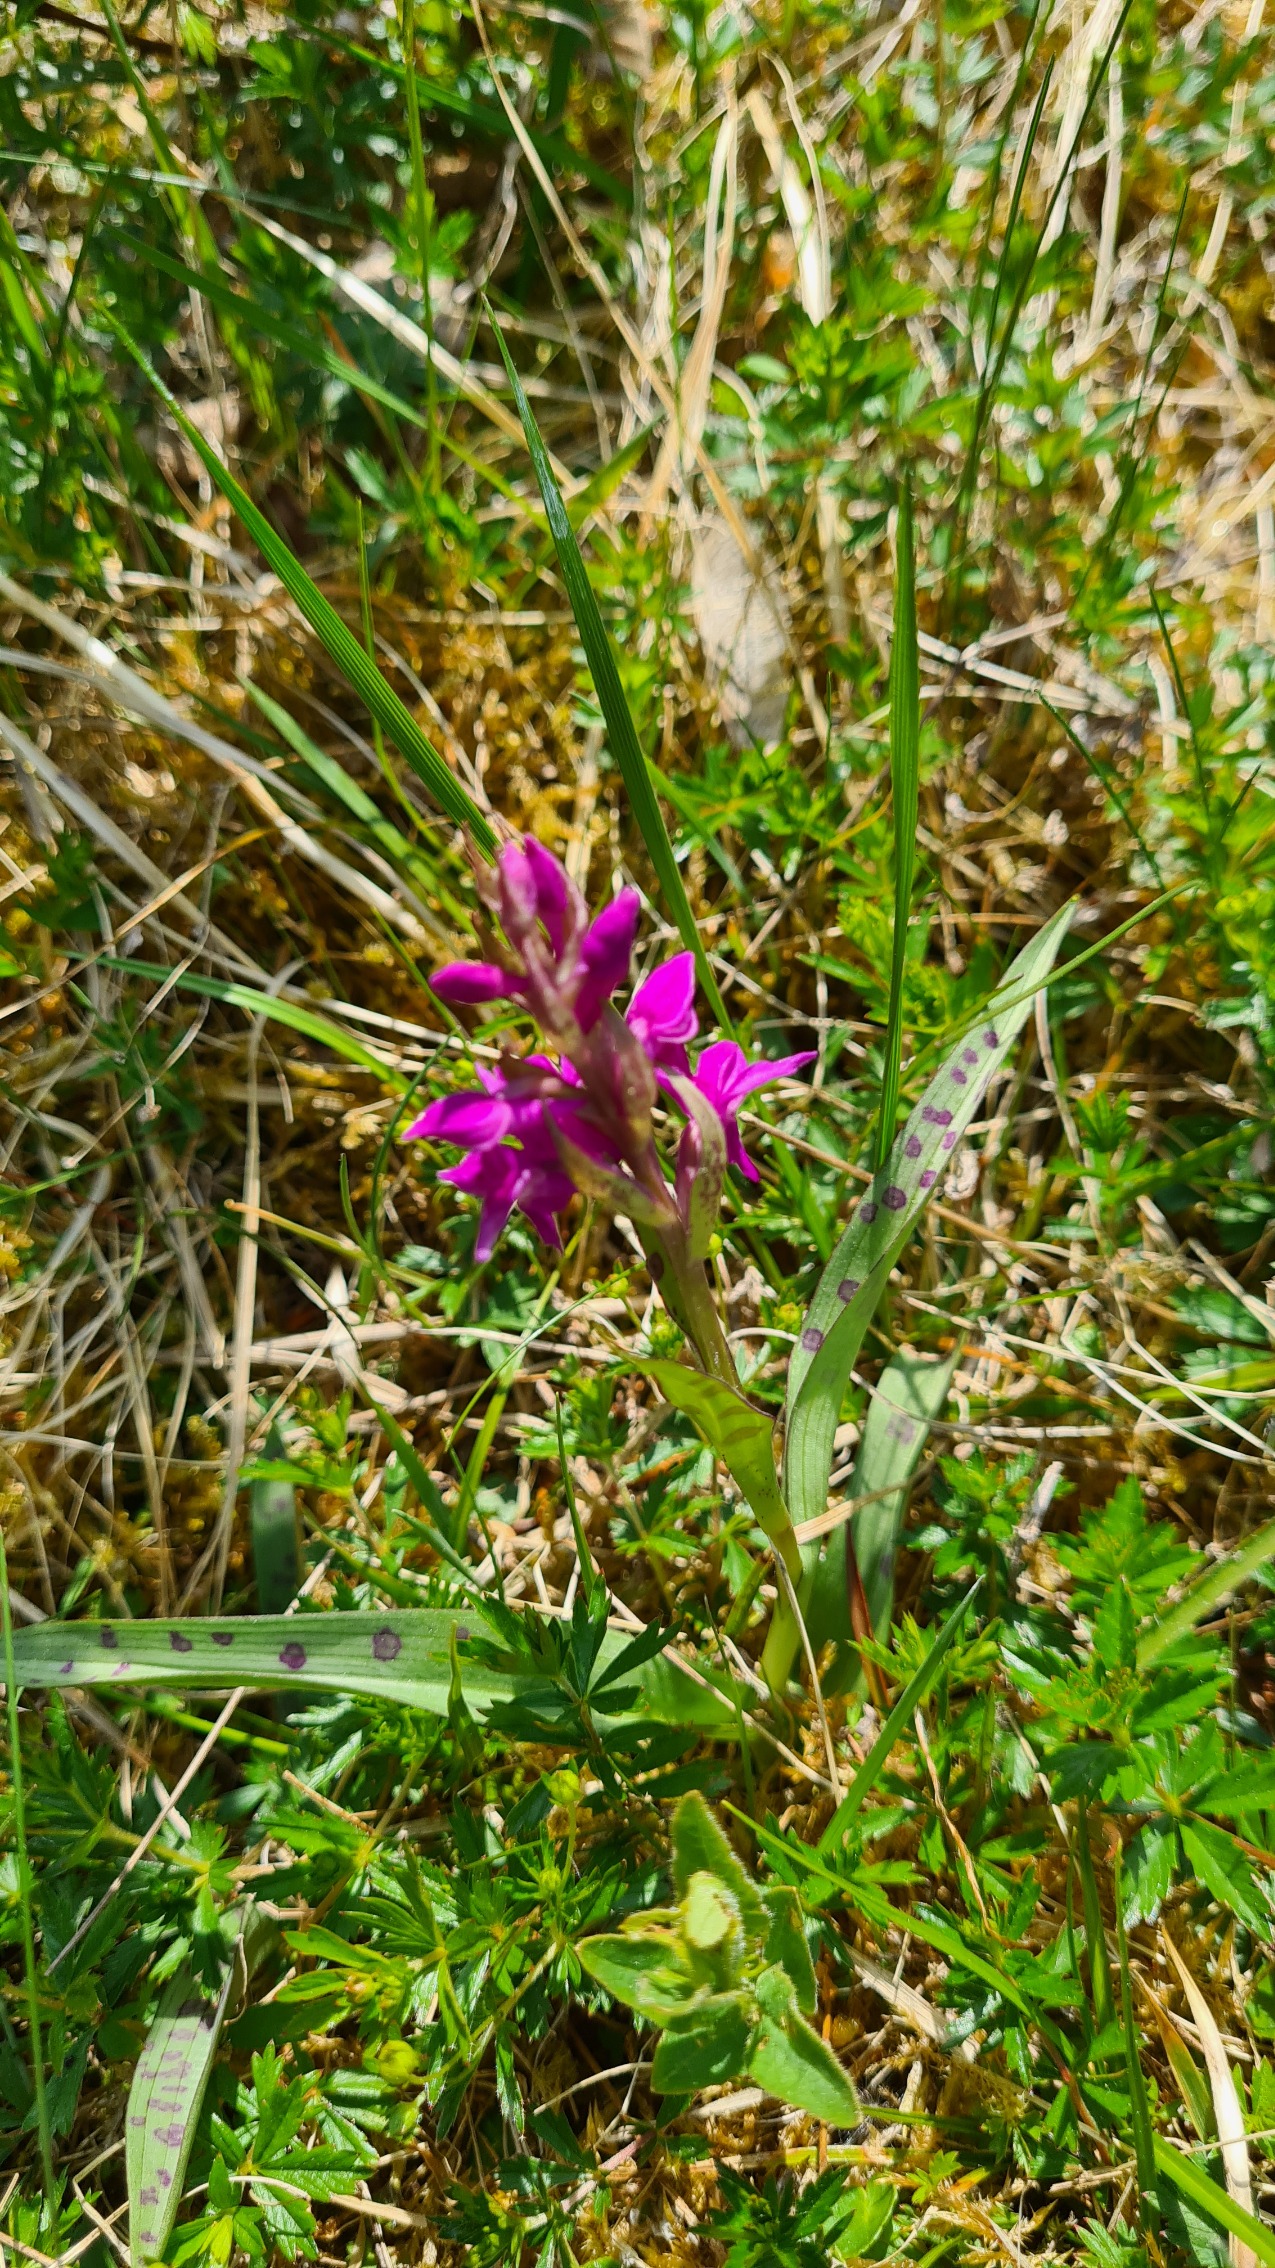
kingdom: Plantae
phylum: Tracheophyta
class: Liliopsida
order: Asparagales
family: Orchidaceae
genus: Dactylorhiza
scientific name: Dactylorhiza majalis
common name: Maj-gøgeurt
